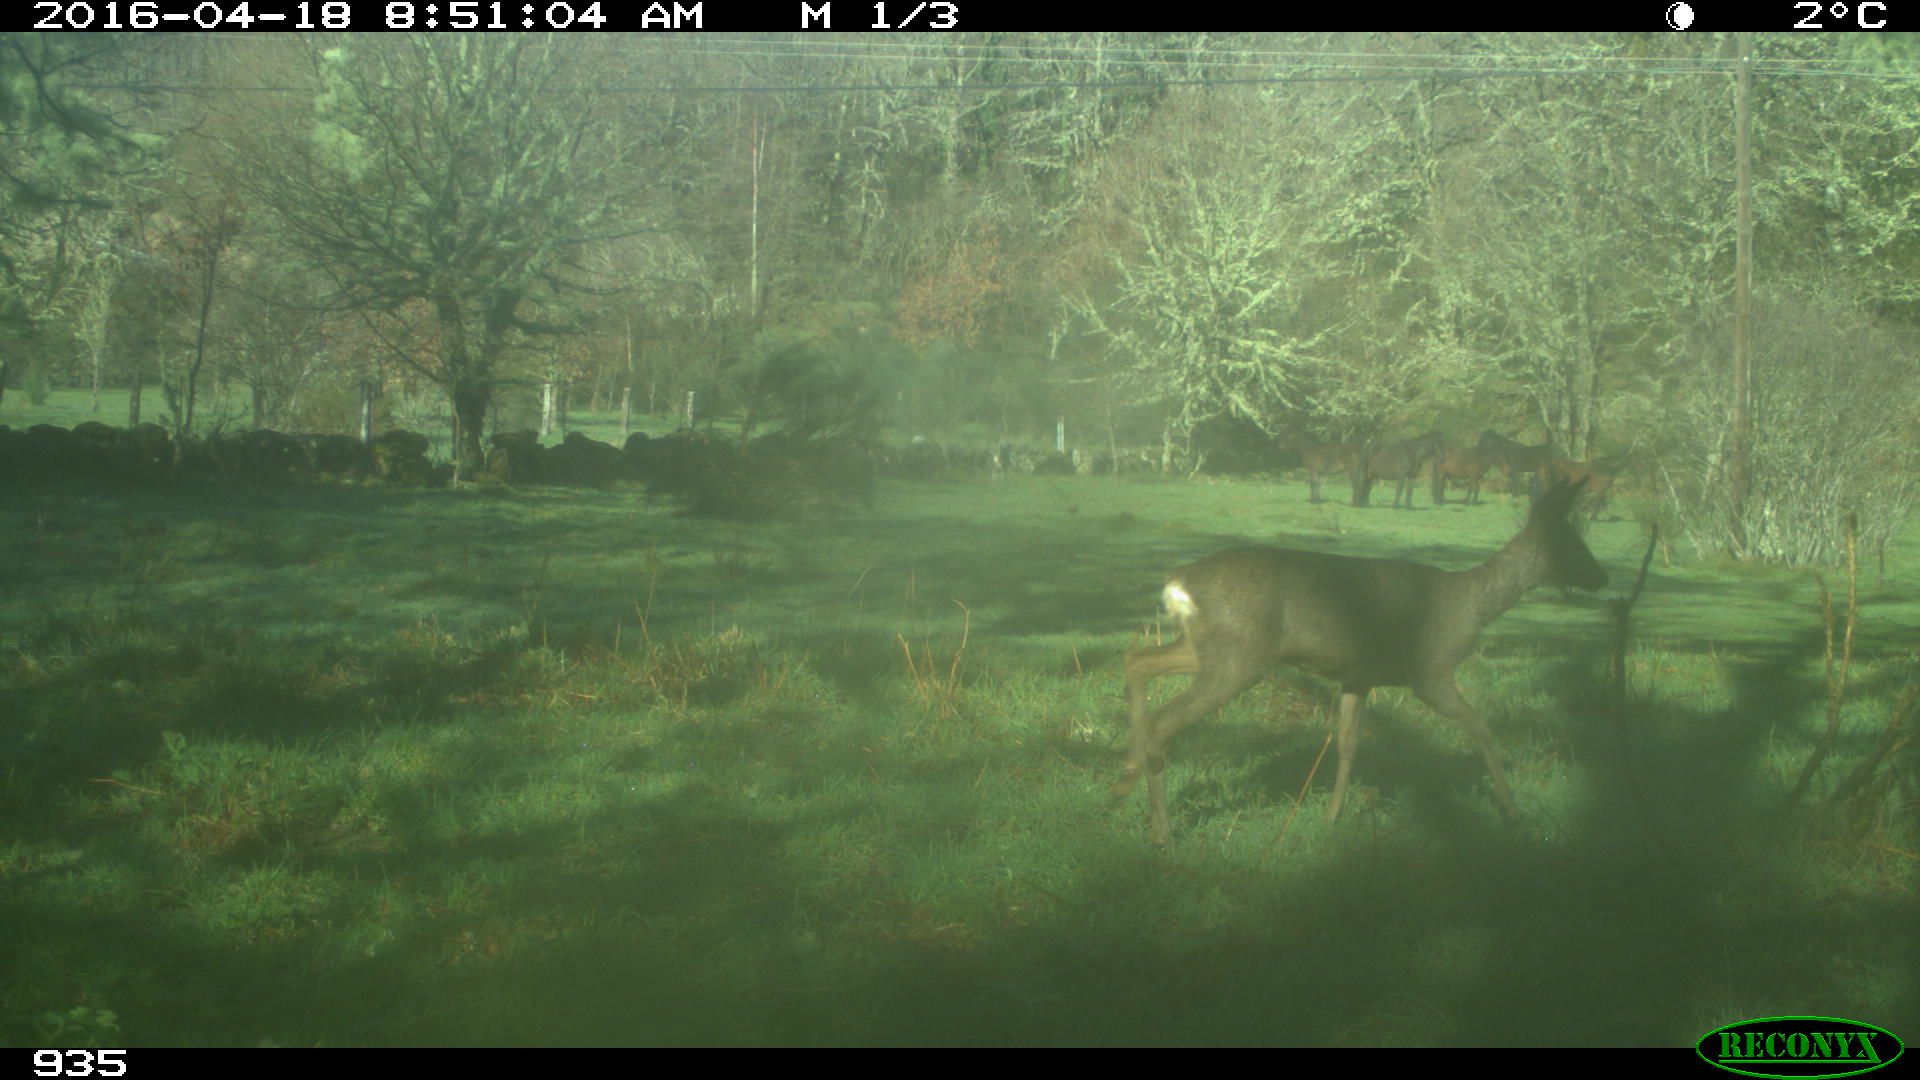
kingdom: Animalia
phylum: Chordata
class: Mammalia
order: Perissodactyla
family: Equidae
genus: Equus
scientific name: Equus caballus
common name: Horse
